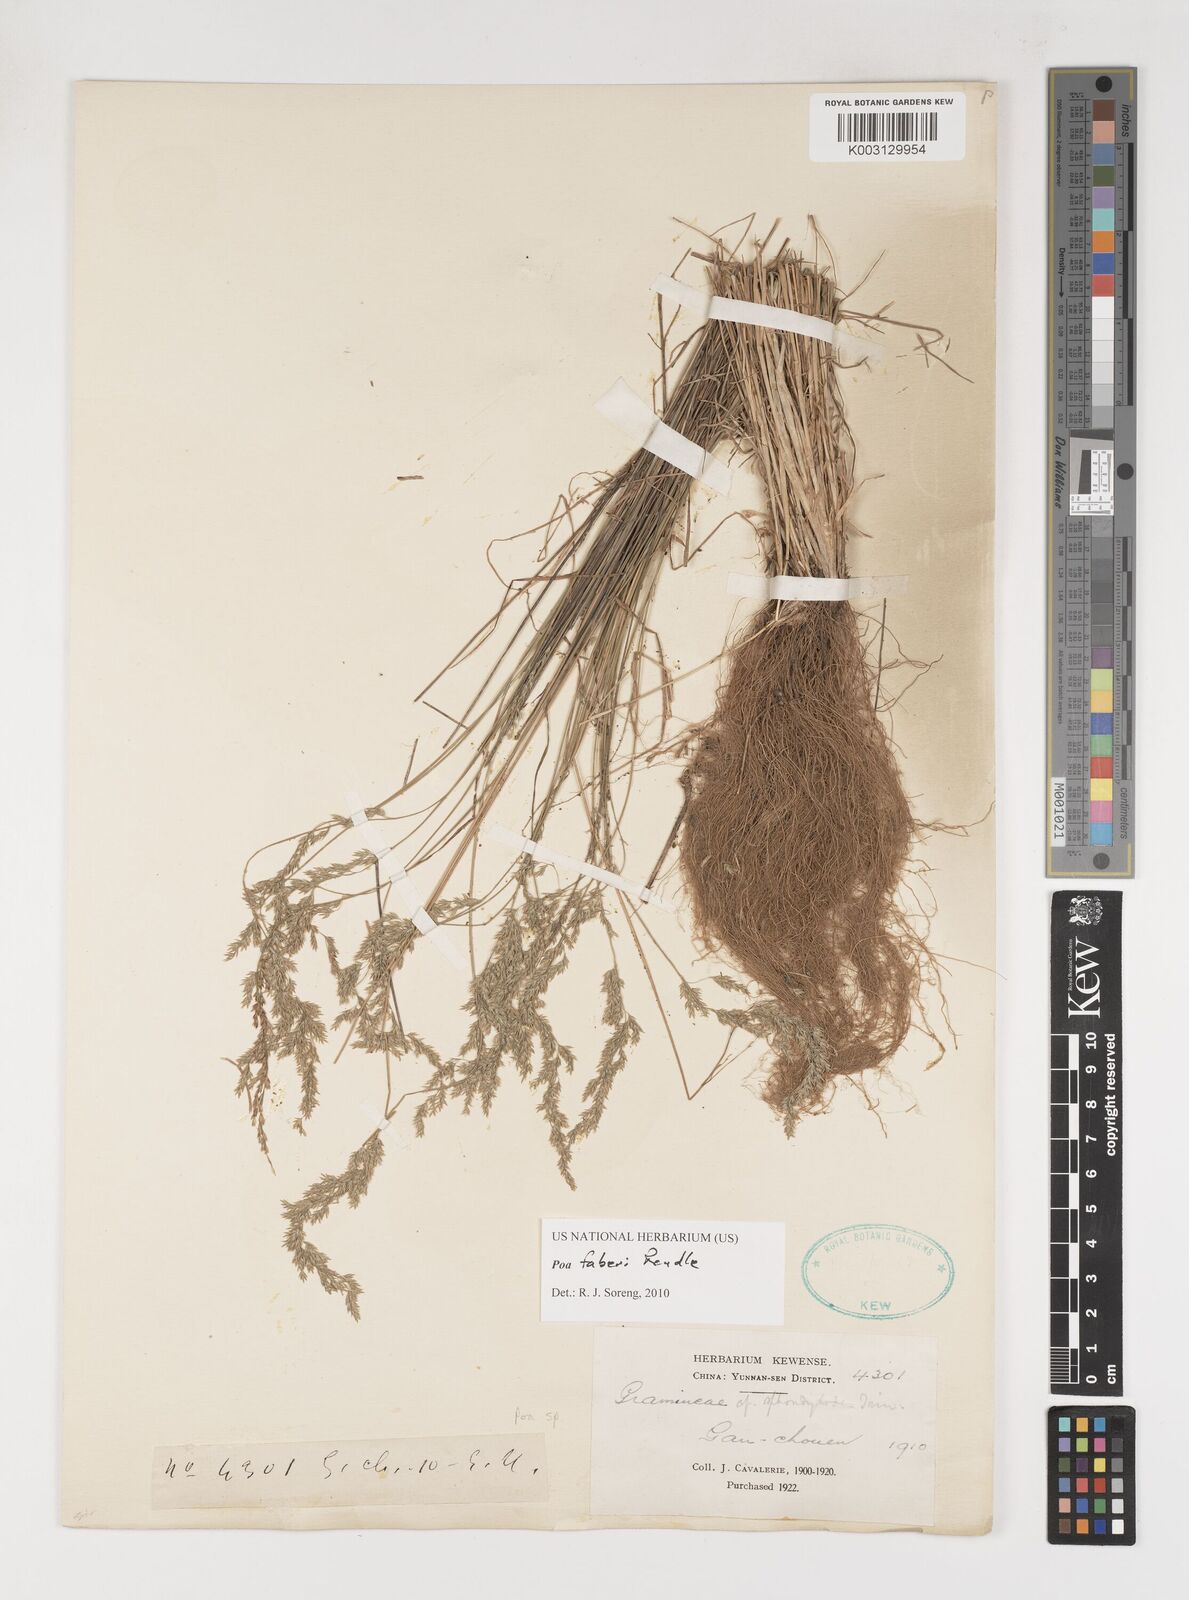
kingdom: Plantae
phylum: Tracheophyta
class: Liliopsida
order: Poales
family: Poaceae
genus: Poa
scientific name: Poa faberi
